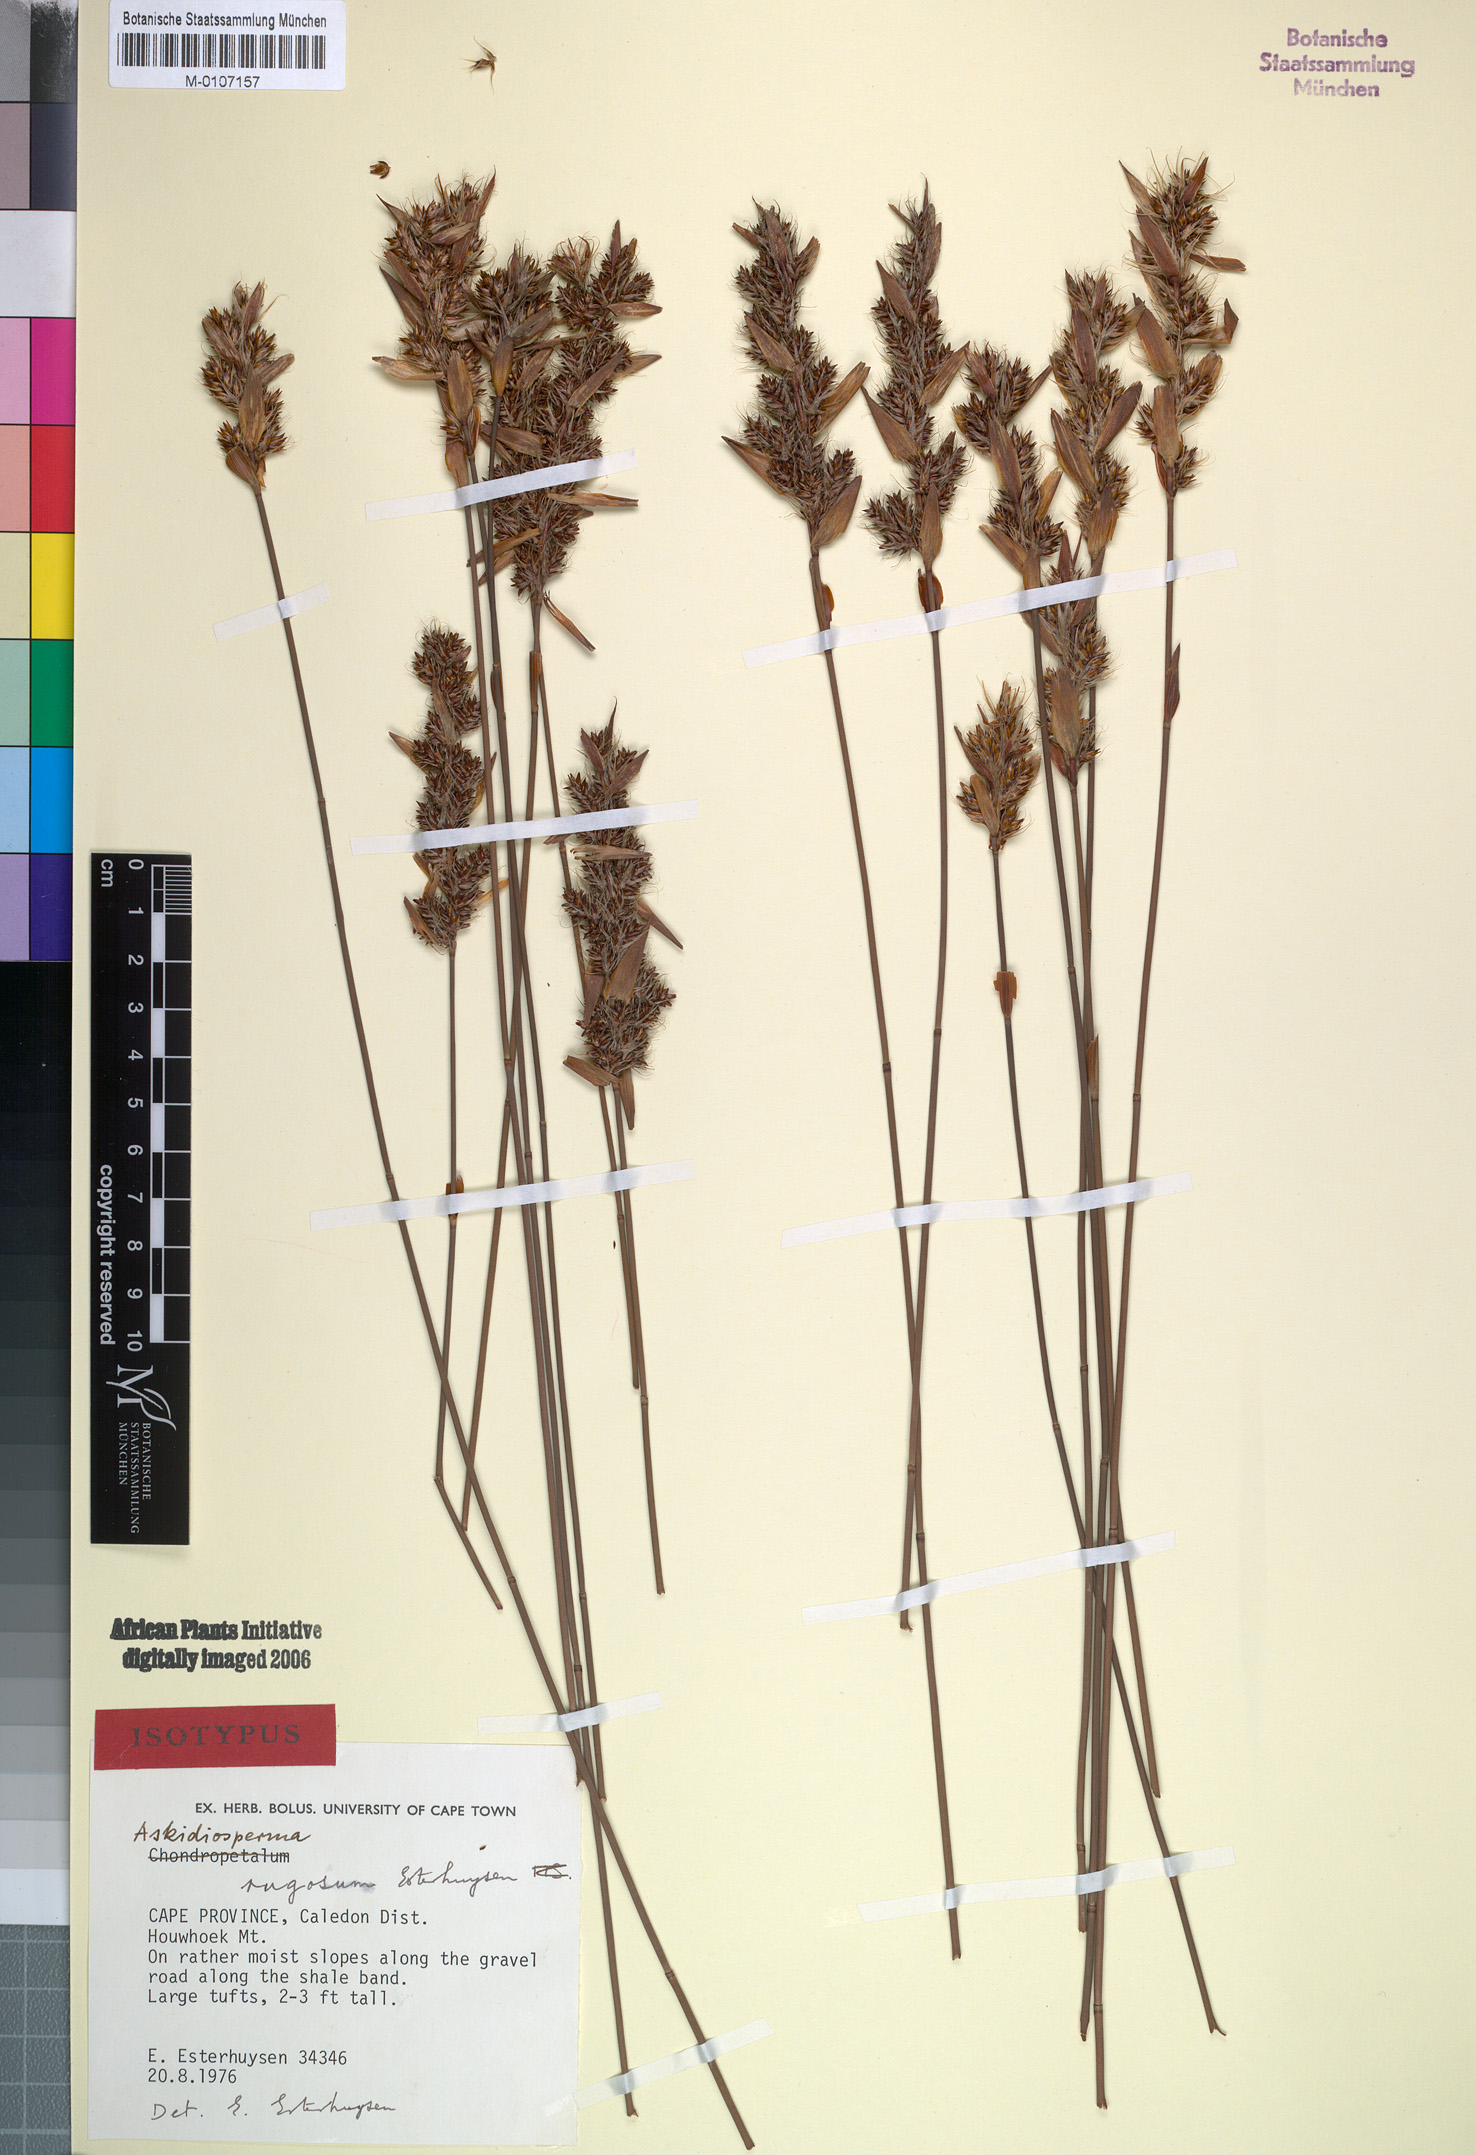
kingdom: Plantae
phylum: Tracheophyta
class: Liliopsida
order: Poales
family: Restionaceae
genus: Askidiosperma
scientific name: Askidiosperma rugosum
